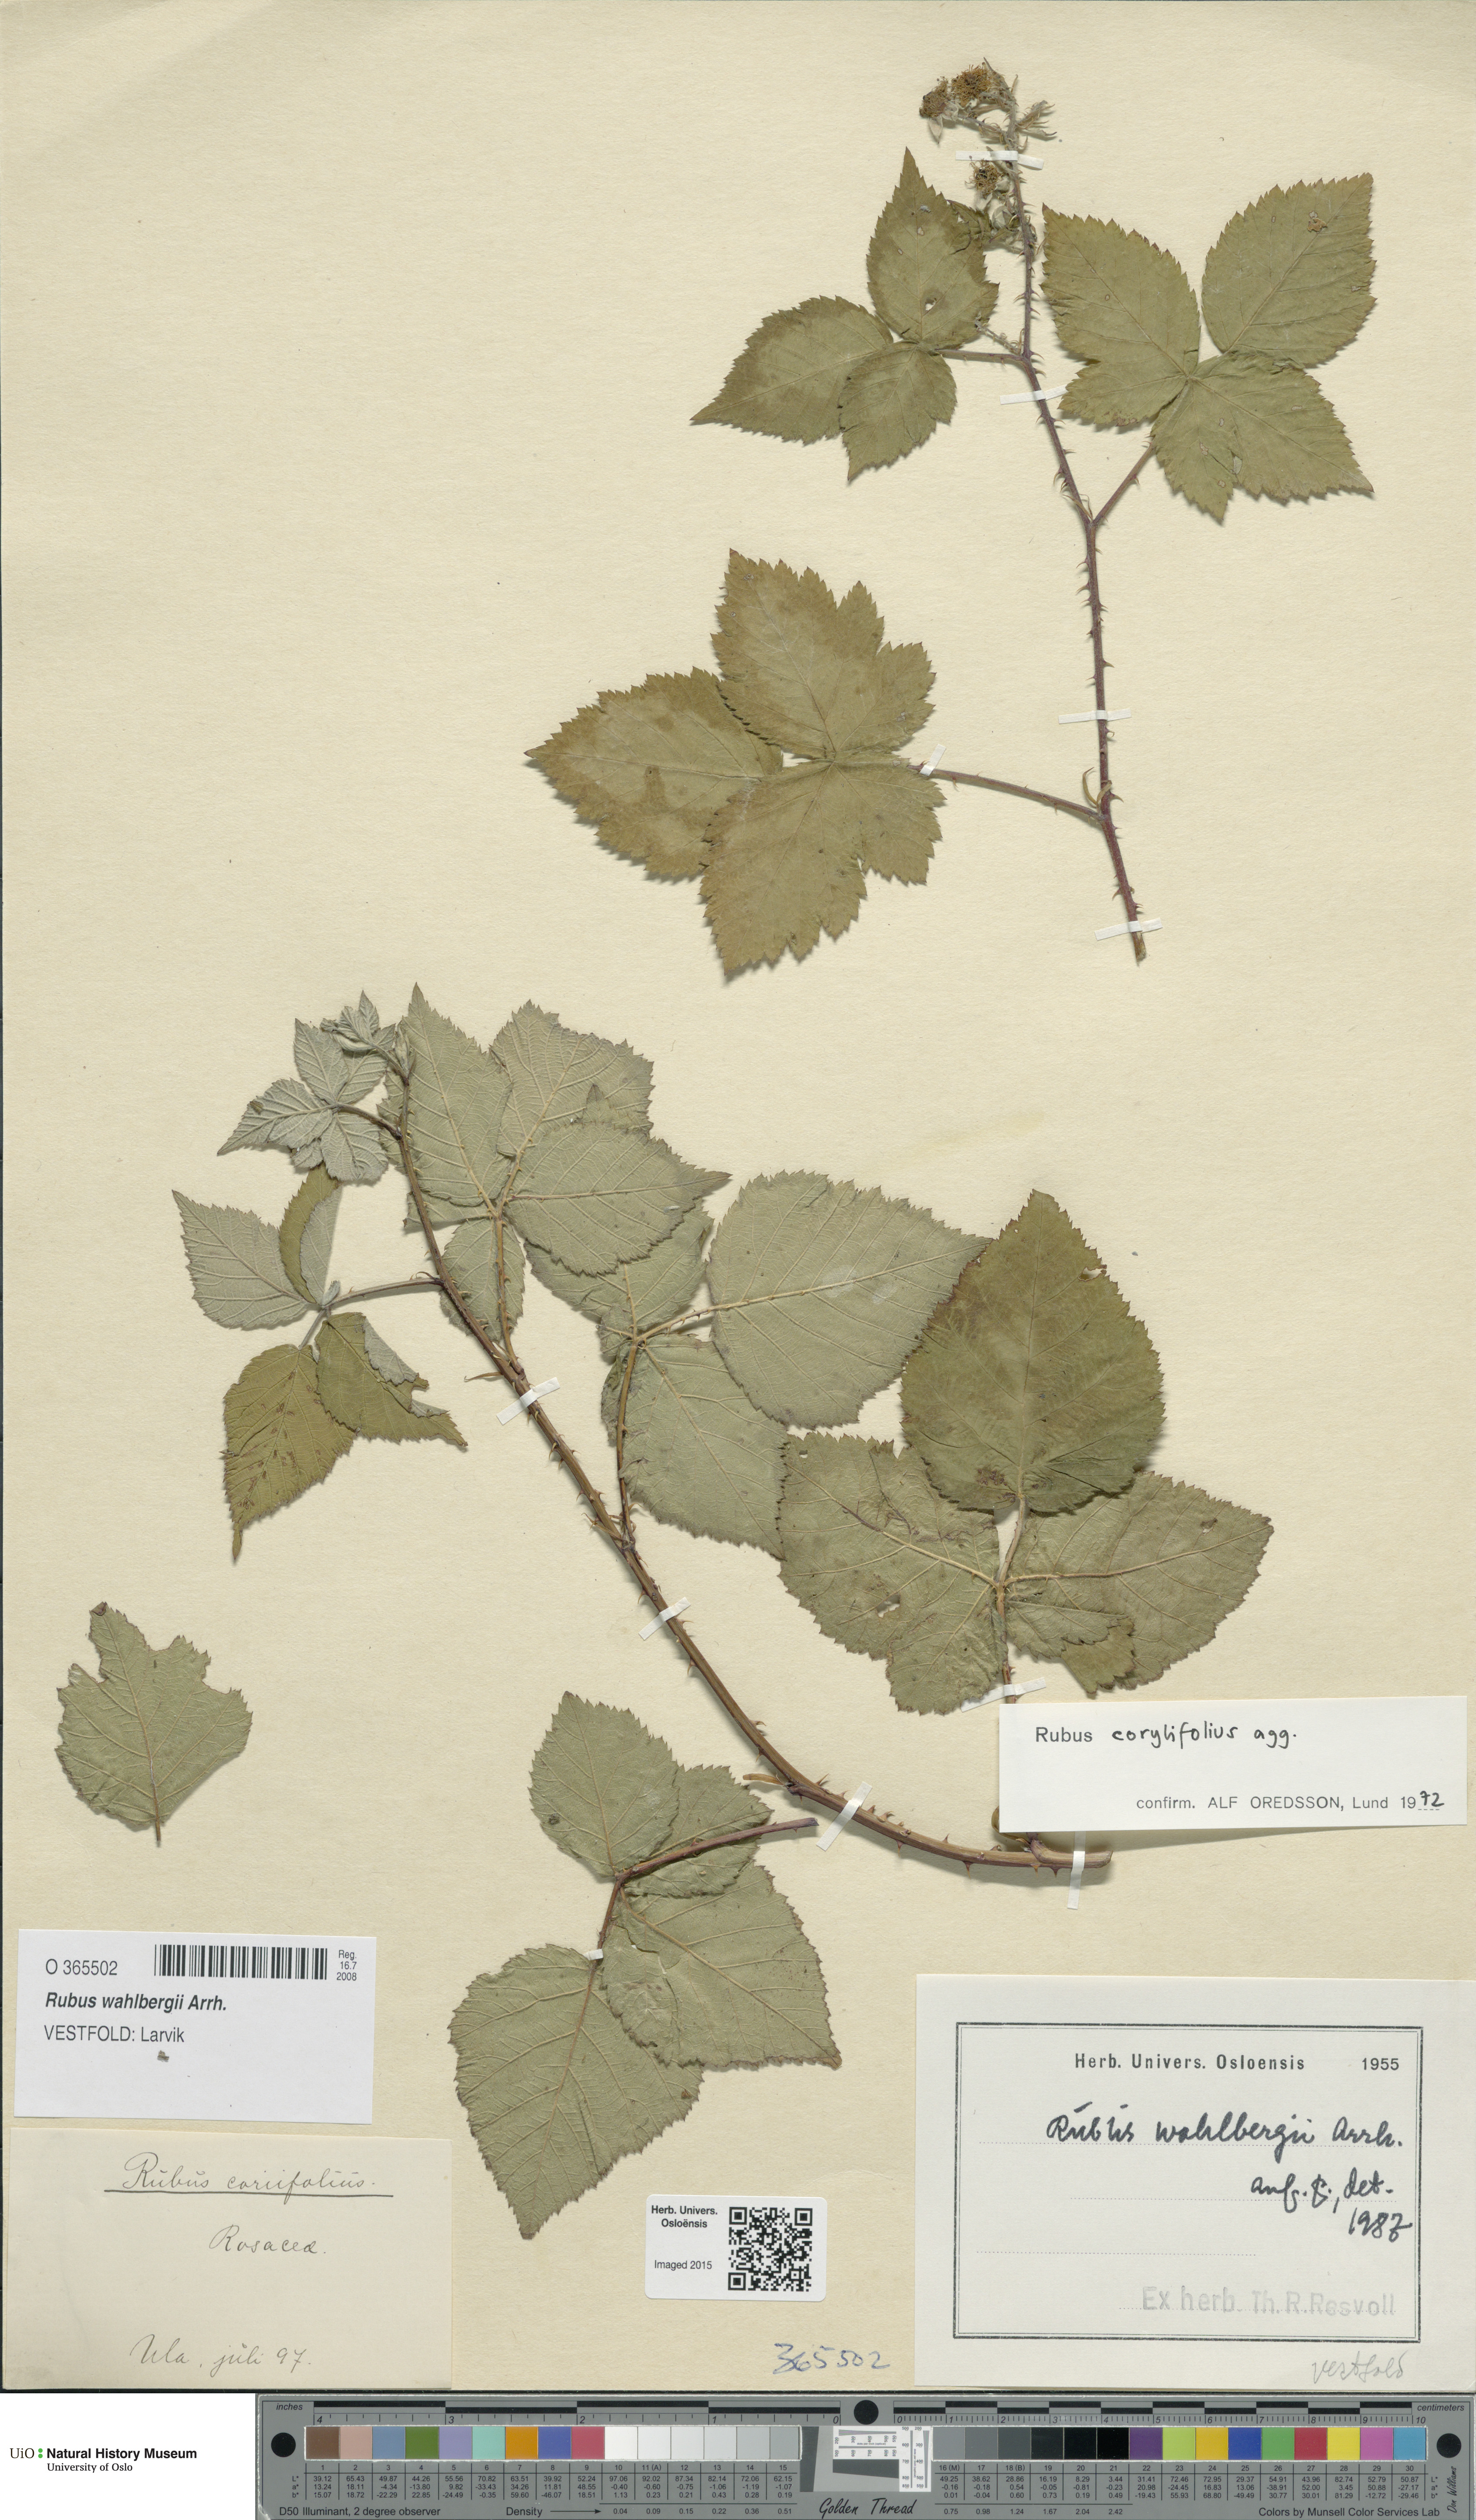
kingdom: Plantae
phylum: Tracheophyta
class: Magnoliopsida
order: Rosales
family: Rosaceae
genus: Rubus
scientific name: Rubus wahlbergii
